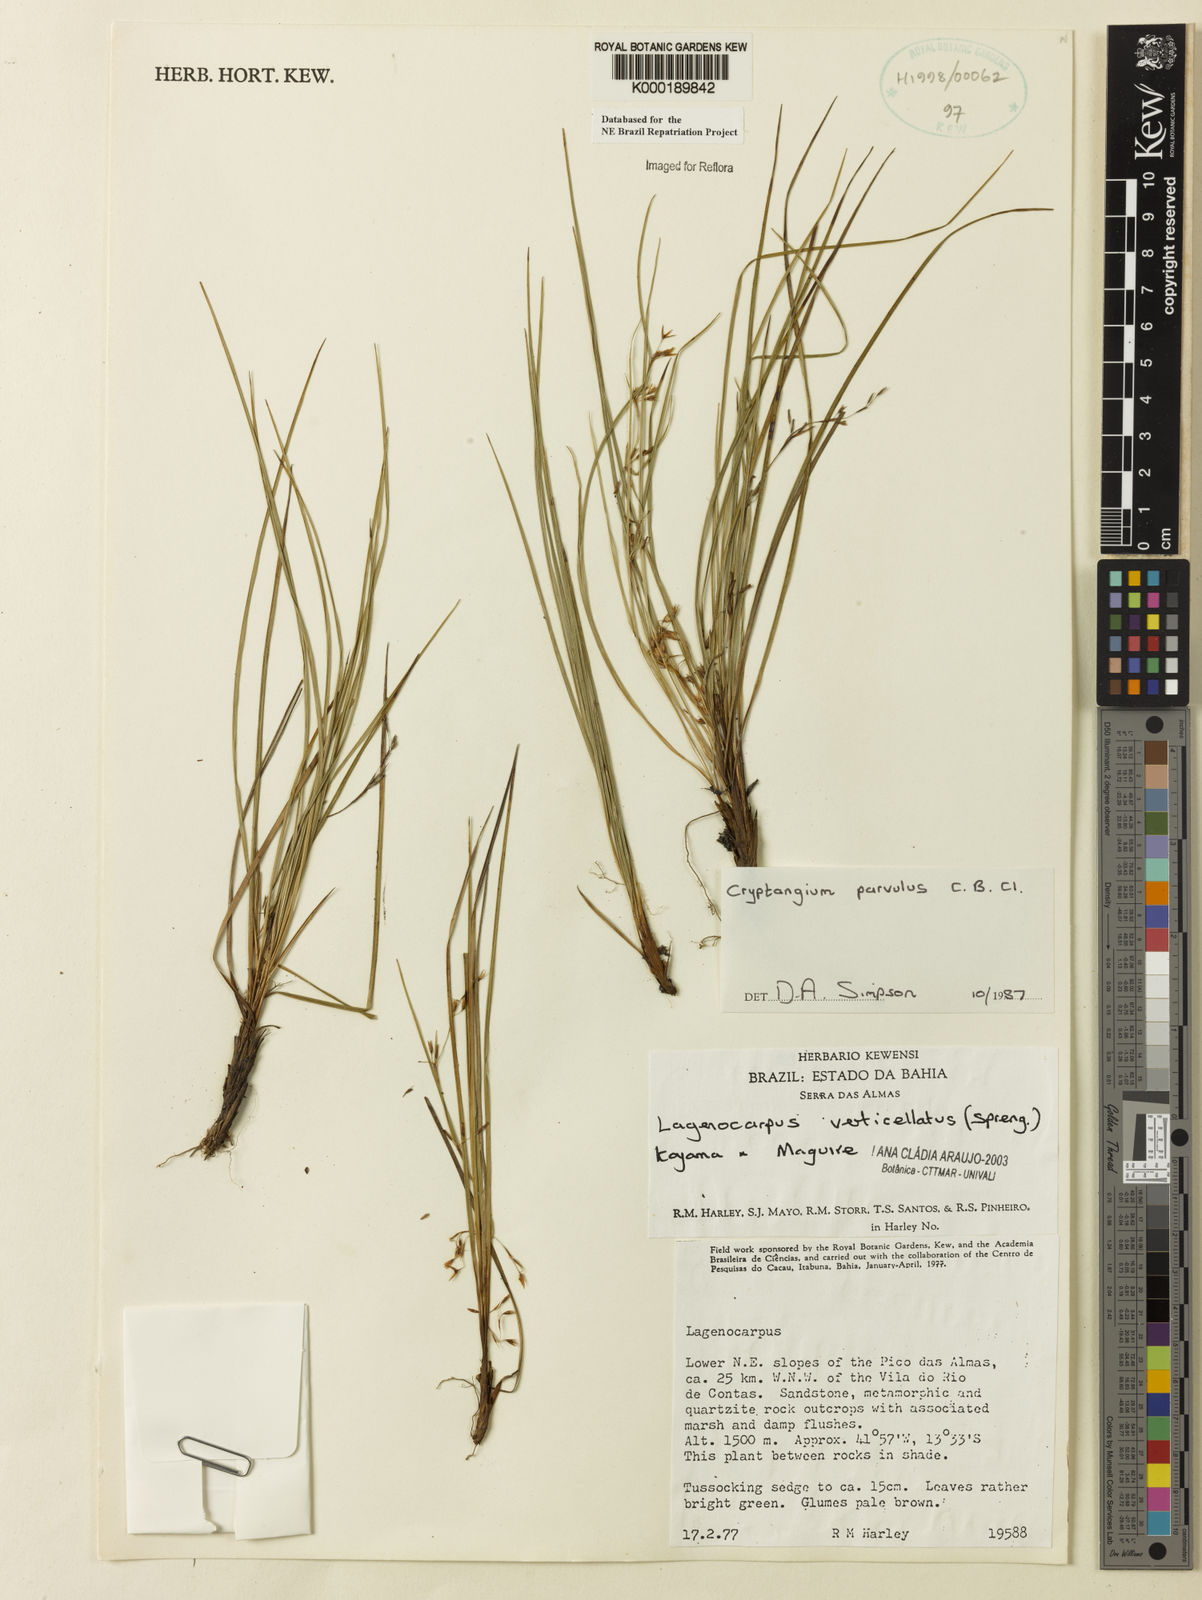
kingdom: Plantae
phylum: Tracheophyta
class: Liliopsida
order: Poales
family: Cyperaceae
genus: Cryptangium
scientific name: Cryptangium verticillatum
